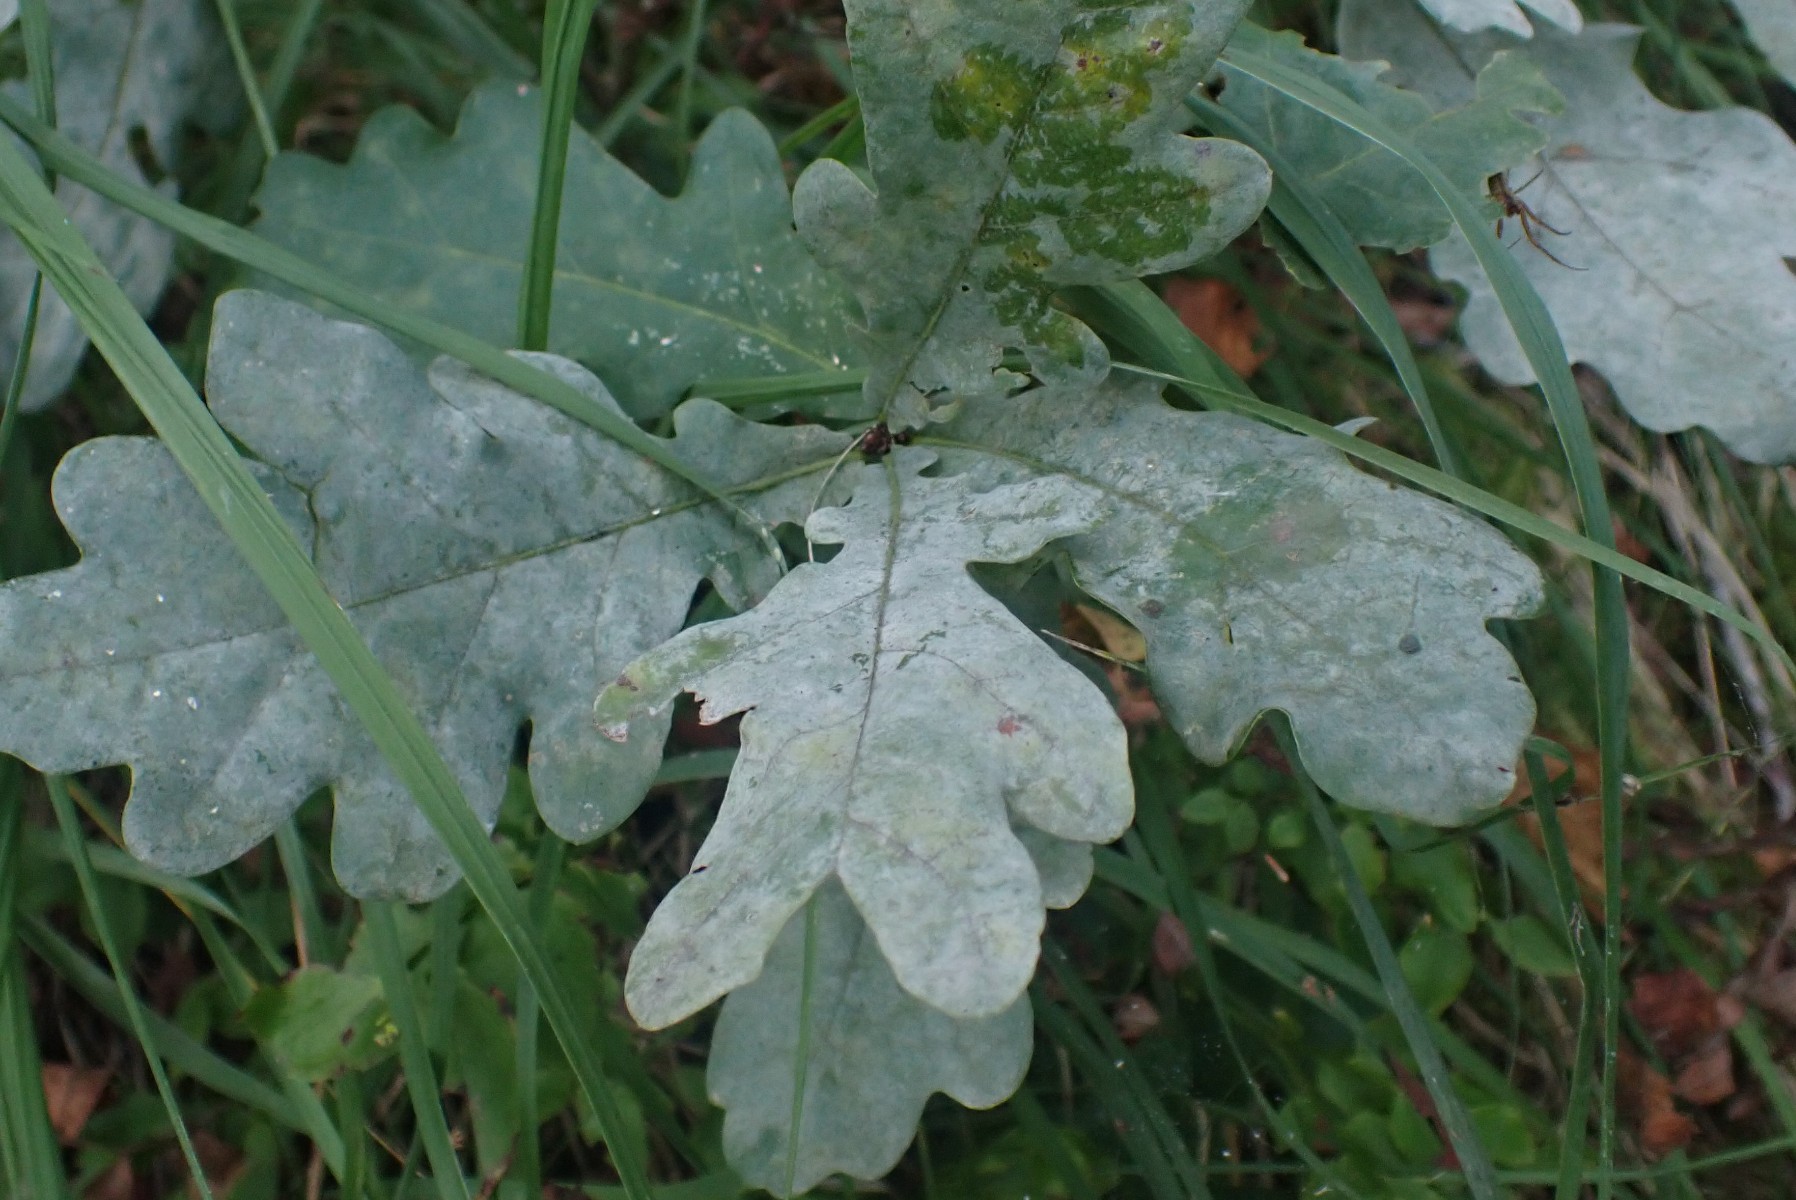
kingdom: Fungi
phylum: Ascomycota
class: Leotiomycetes
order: Helotiales
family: Erysiphaceae
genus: Erysiphe
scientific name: Erysiphe alphitoides
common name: ege-meldug
